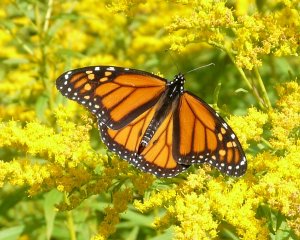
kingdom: Animalia
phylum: Arthropoda
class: Insecta
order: Lepidoptera
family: Nymphalidae
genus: Danaus
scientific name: Danaus plexippus
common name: Monarch
